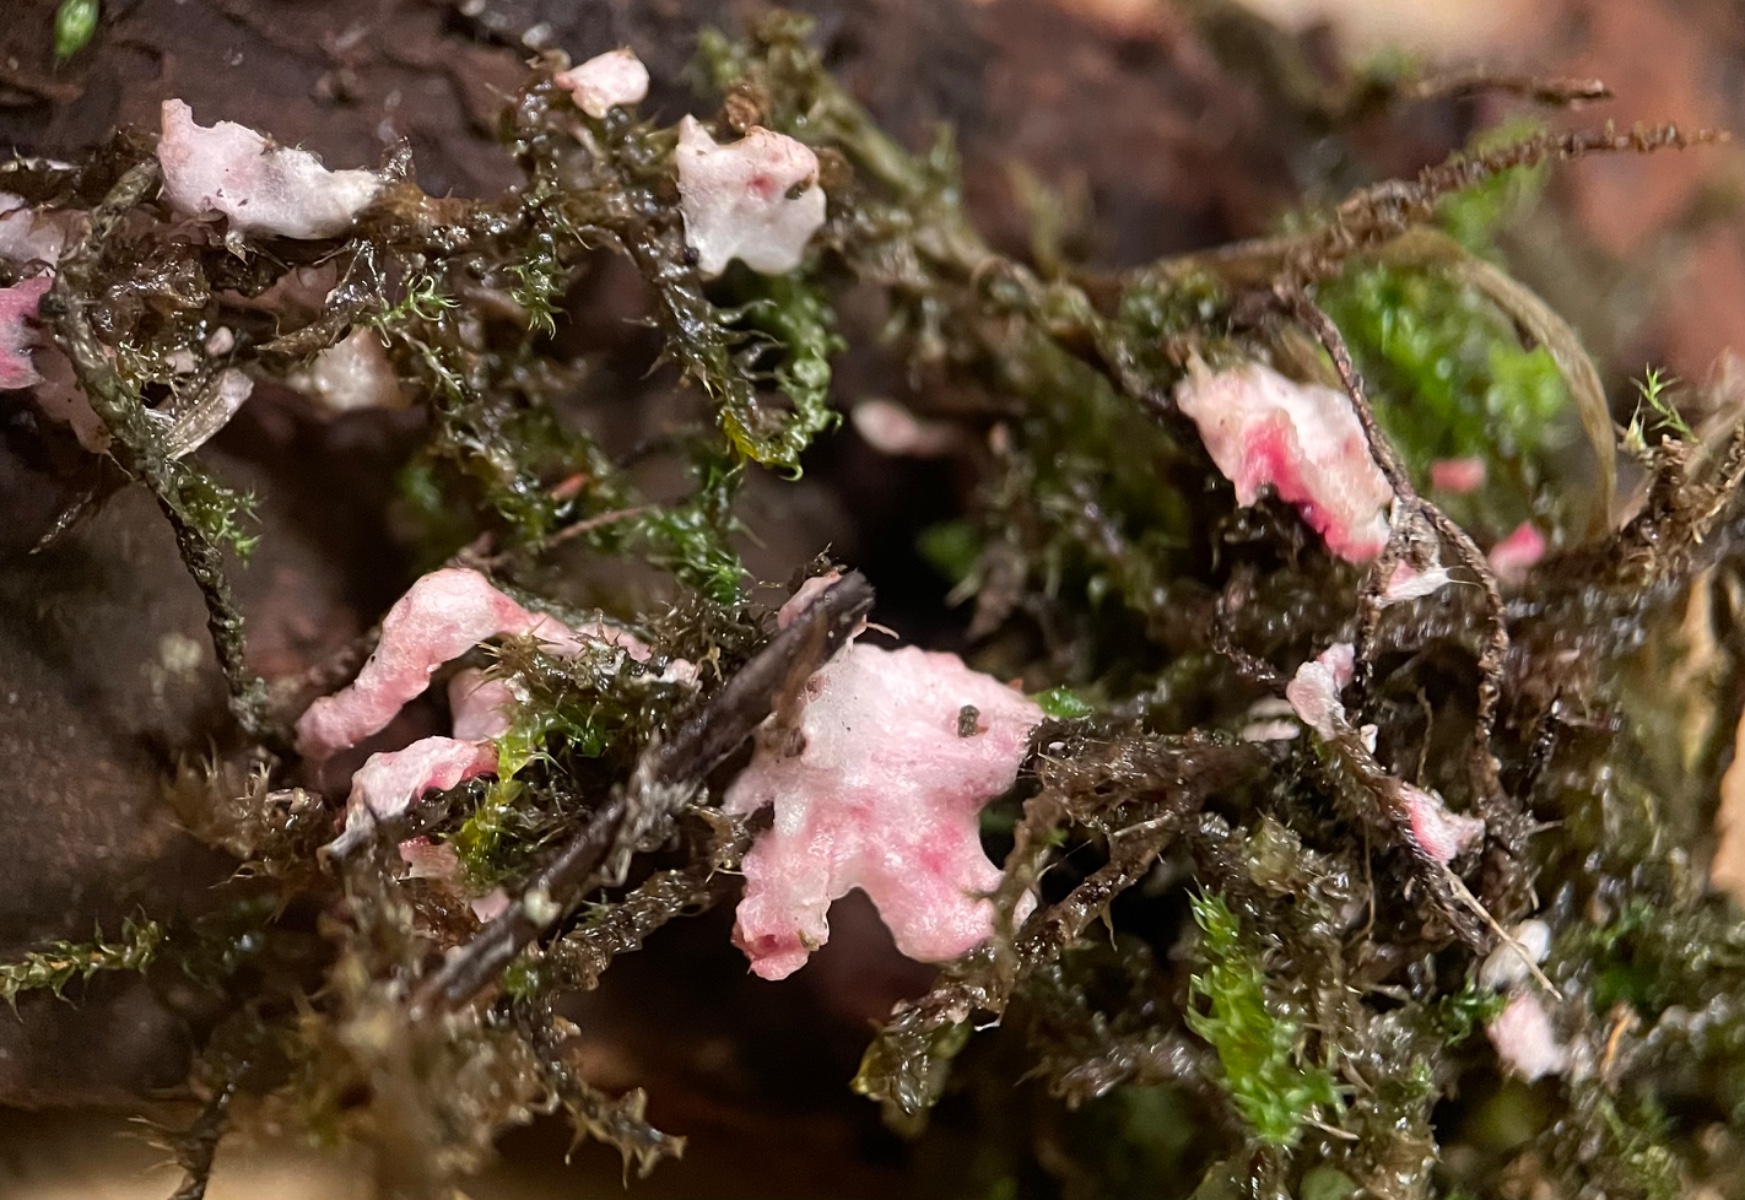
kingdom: Fungi
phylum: Basidiomycota
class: Agaricomycetes
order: Corticiales
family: Corticiaceae
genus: Laetisaria
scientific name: Laetisaria
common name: rødtråd
